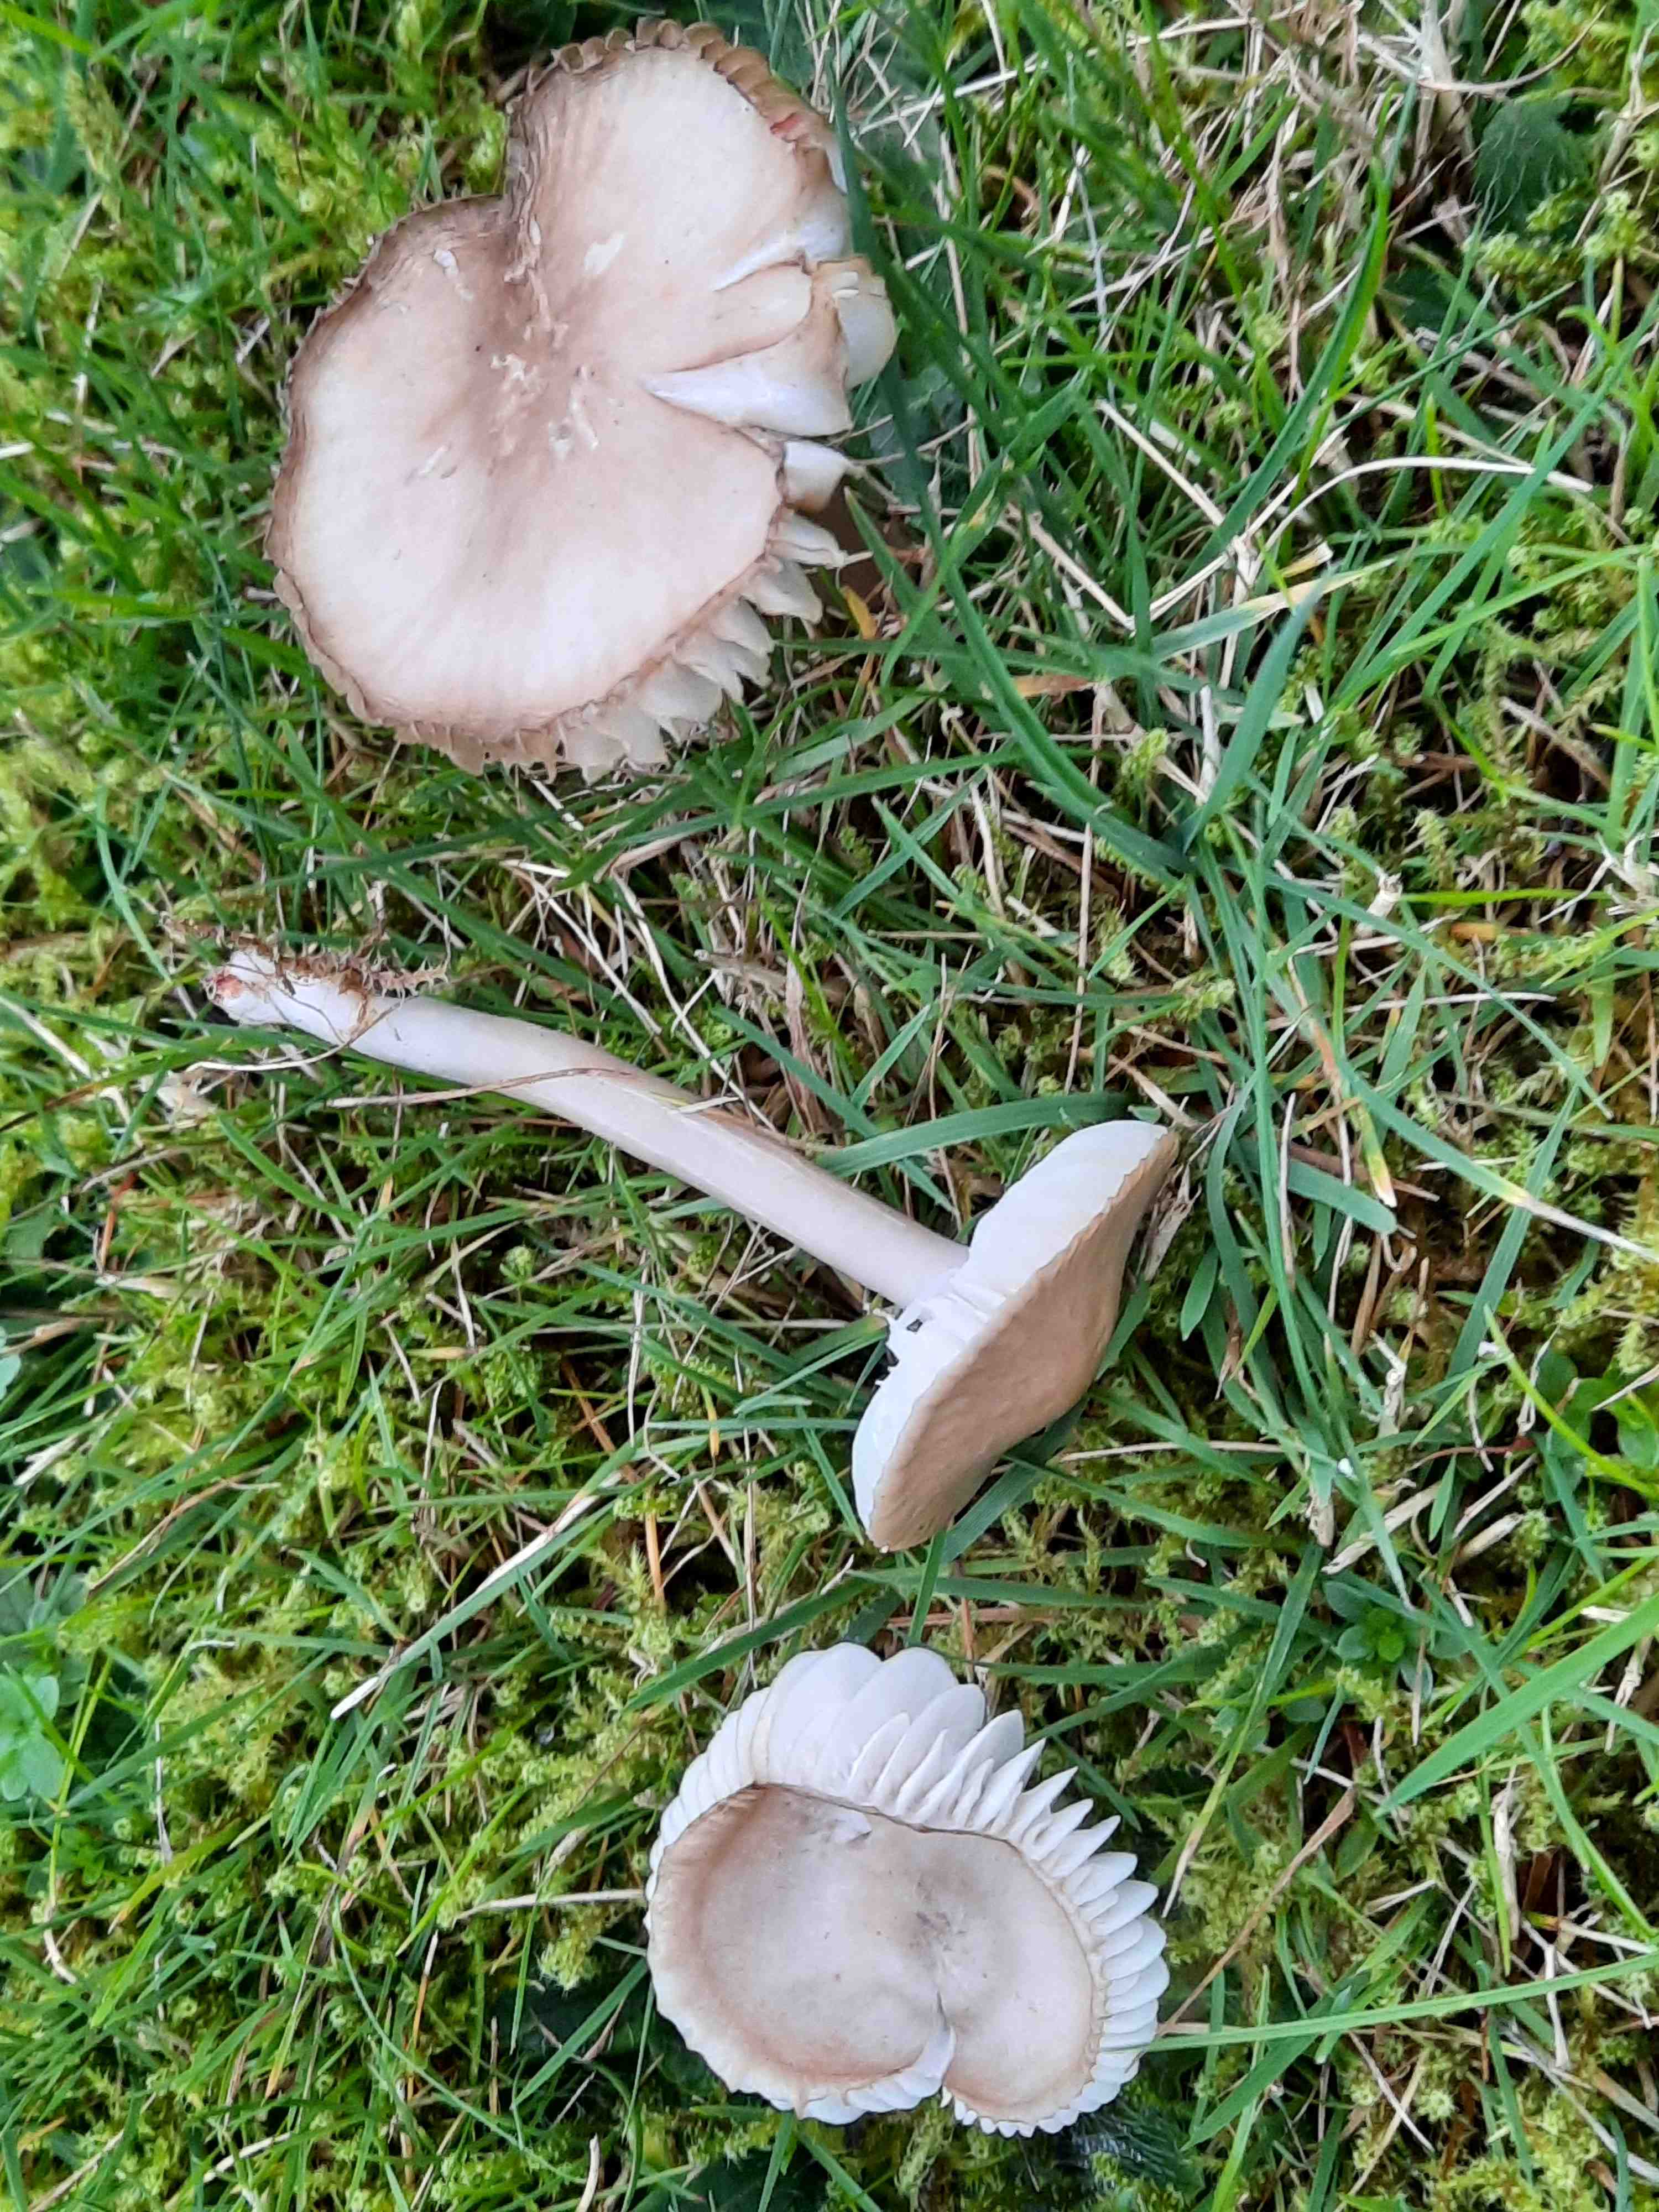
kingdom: Fungi
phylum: Basidiomycota
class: Agaricomycetes
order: Agaricales
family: Hygrophoraceae
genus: Gliophorus
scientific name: Gliophorus irrigatus
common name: slimet vokshat
